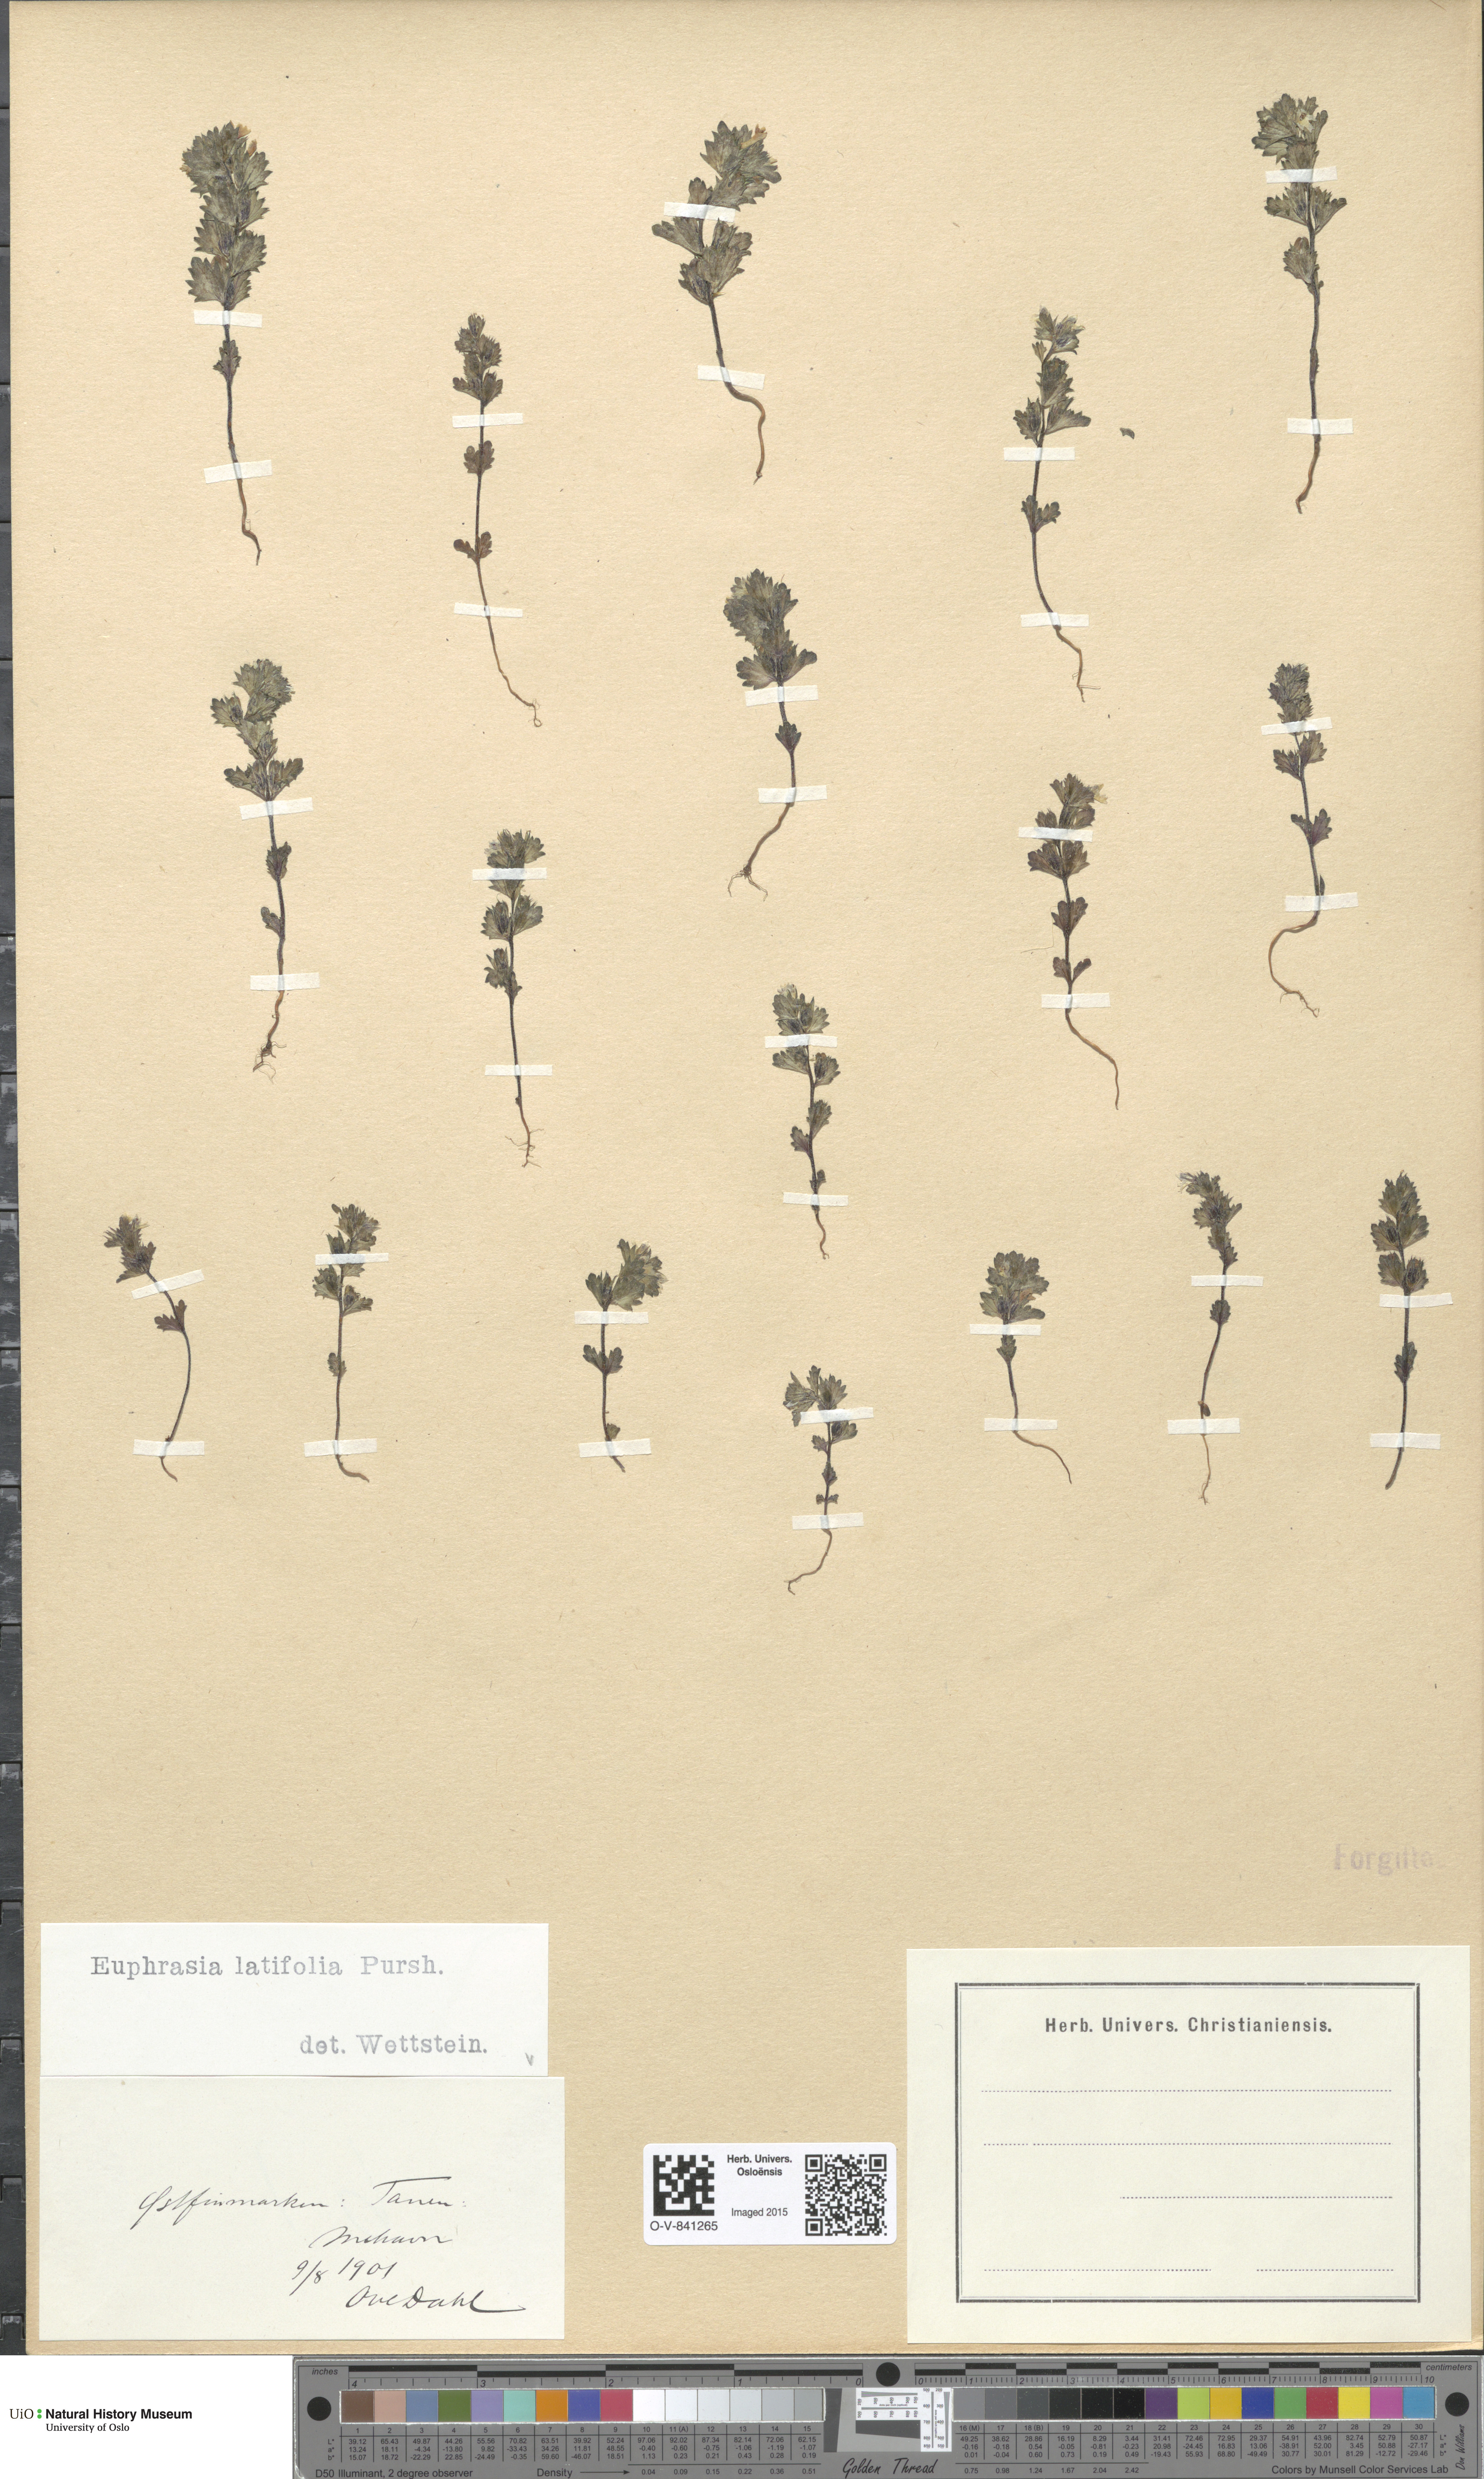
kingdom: Plantae
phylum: Tracheophyta
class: Magnoliopsida
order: Lamiales
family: Orobanchaceae
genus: Euphrasia
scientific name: Euphrasia wettsteinii
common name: Wettstein's eyebright
